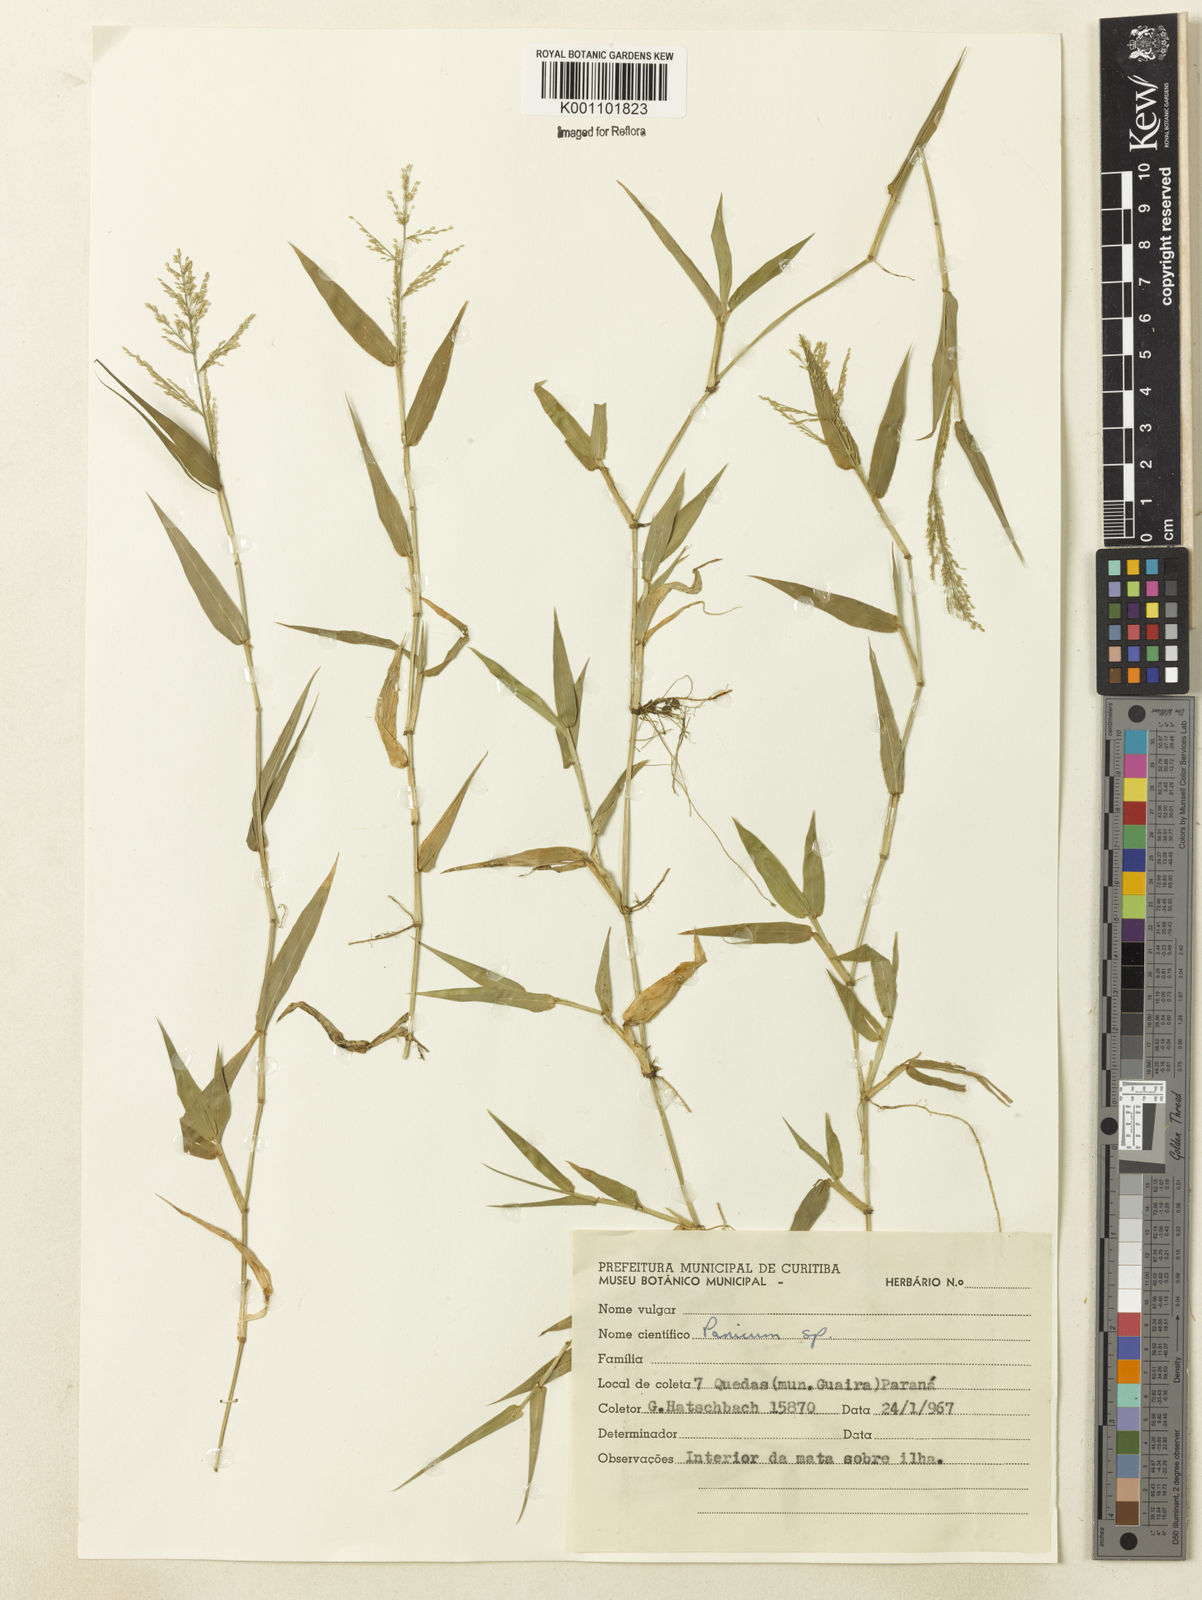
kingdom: Plantae
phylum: Tracheophyta
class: Liliopsida
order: Poales
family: Poaceae
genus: Rugoloa
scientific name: Rugoloa polygonata
